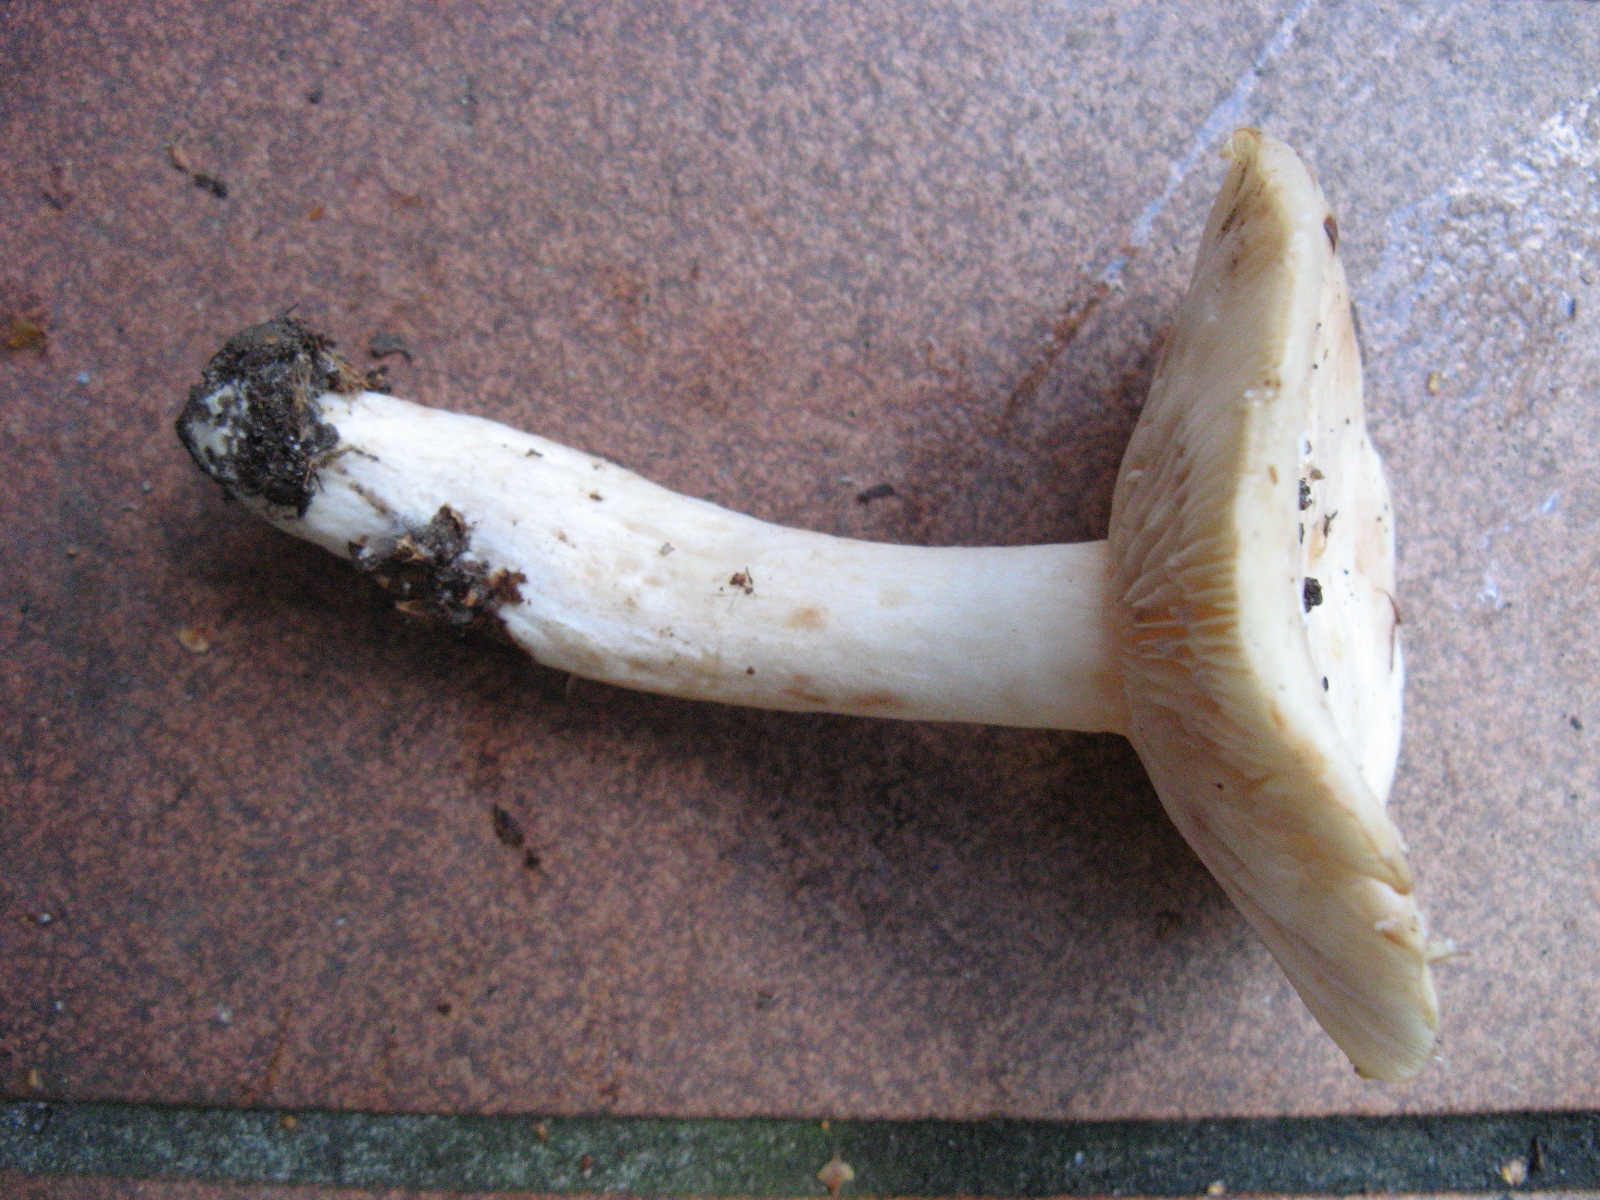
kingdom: Fungi
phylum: Basidiomycota
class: Agaricomycetes
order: Russulales
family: Russulaceae
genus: Lactarius
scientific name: Lactarius pallidus
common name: bleg mælkehat
